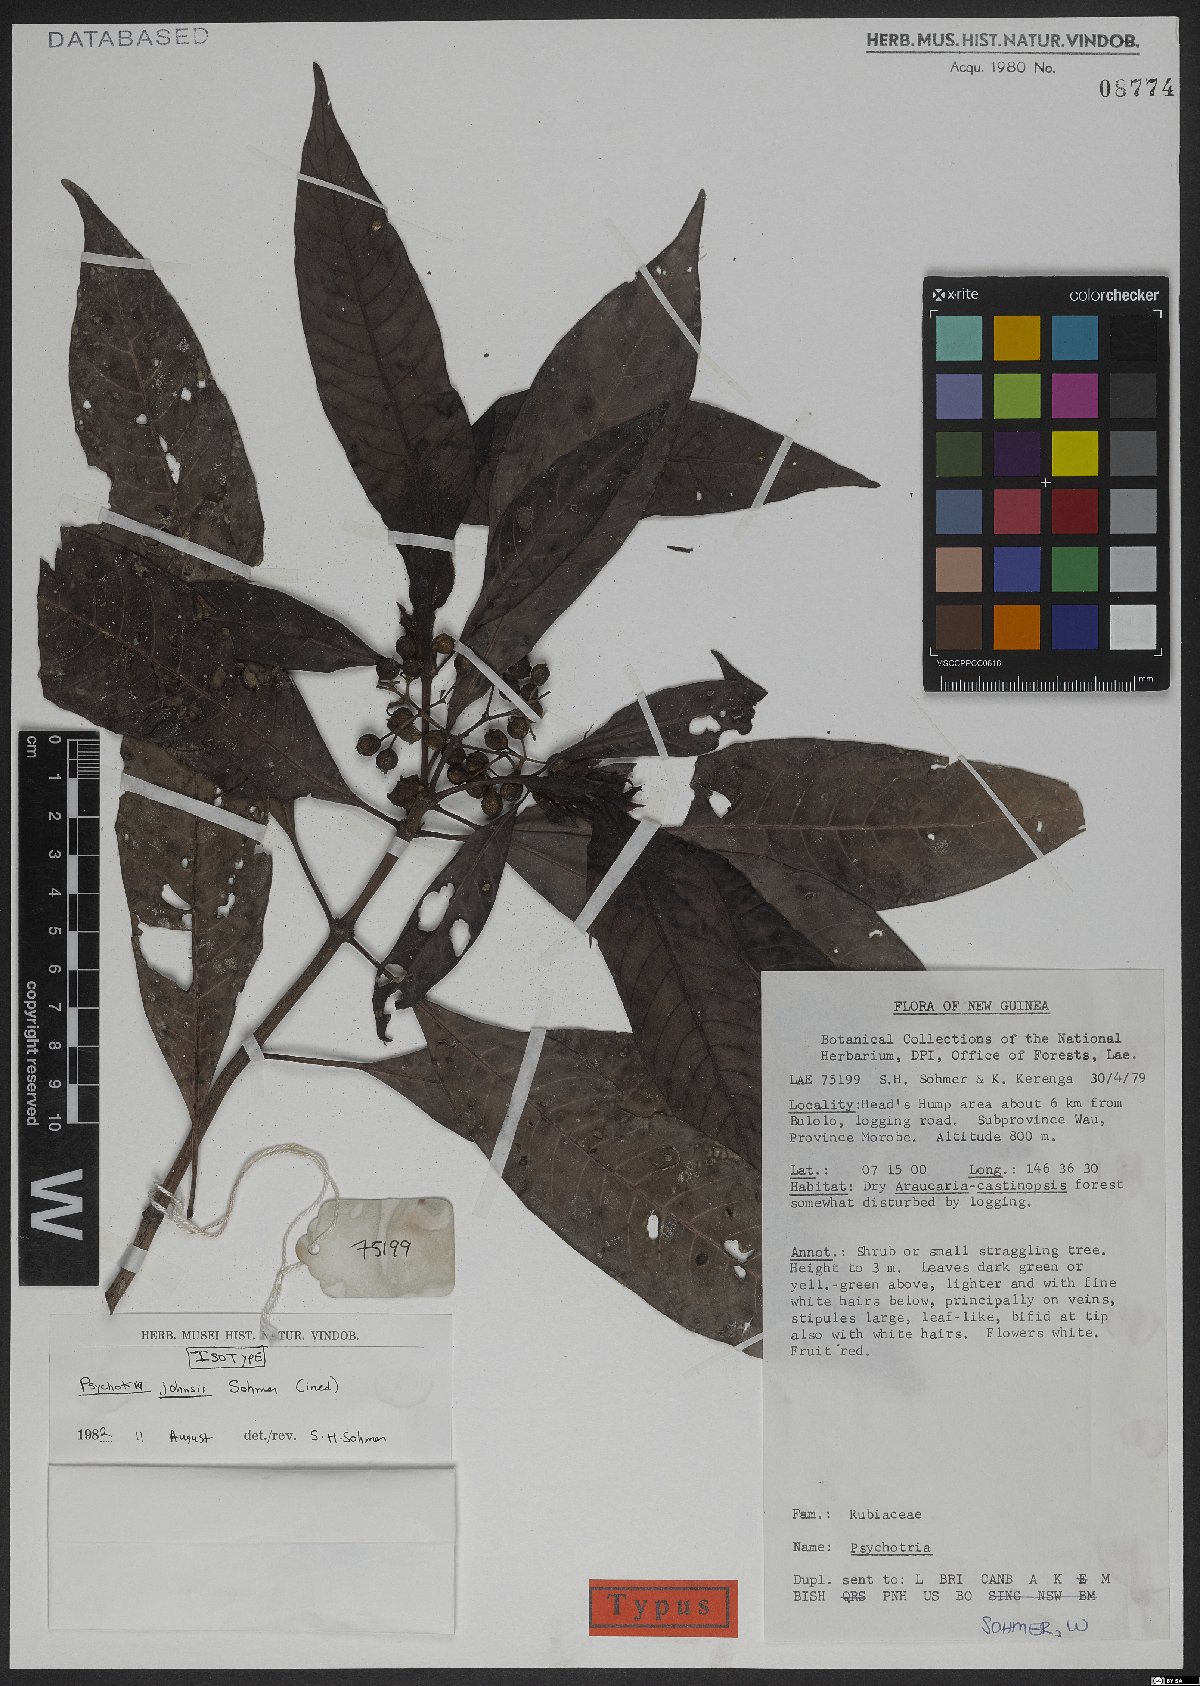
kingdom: Plantae
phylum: Tracheophyta
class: Magnoliopsida
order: Gentianales
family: Rubiaceae
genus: Psychotria
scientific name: Psychotria johnsii
